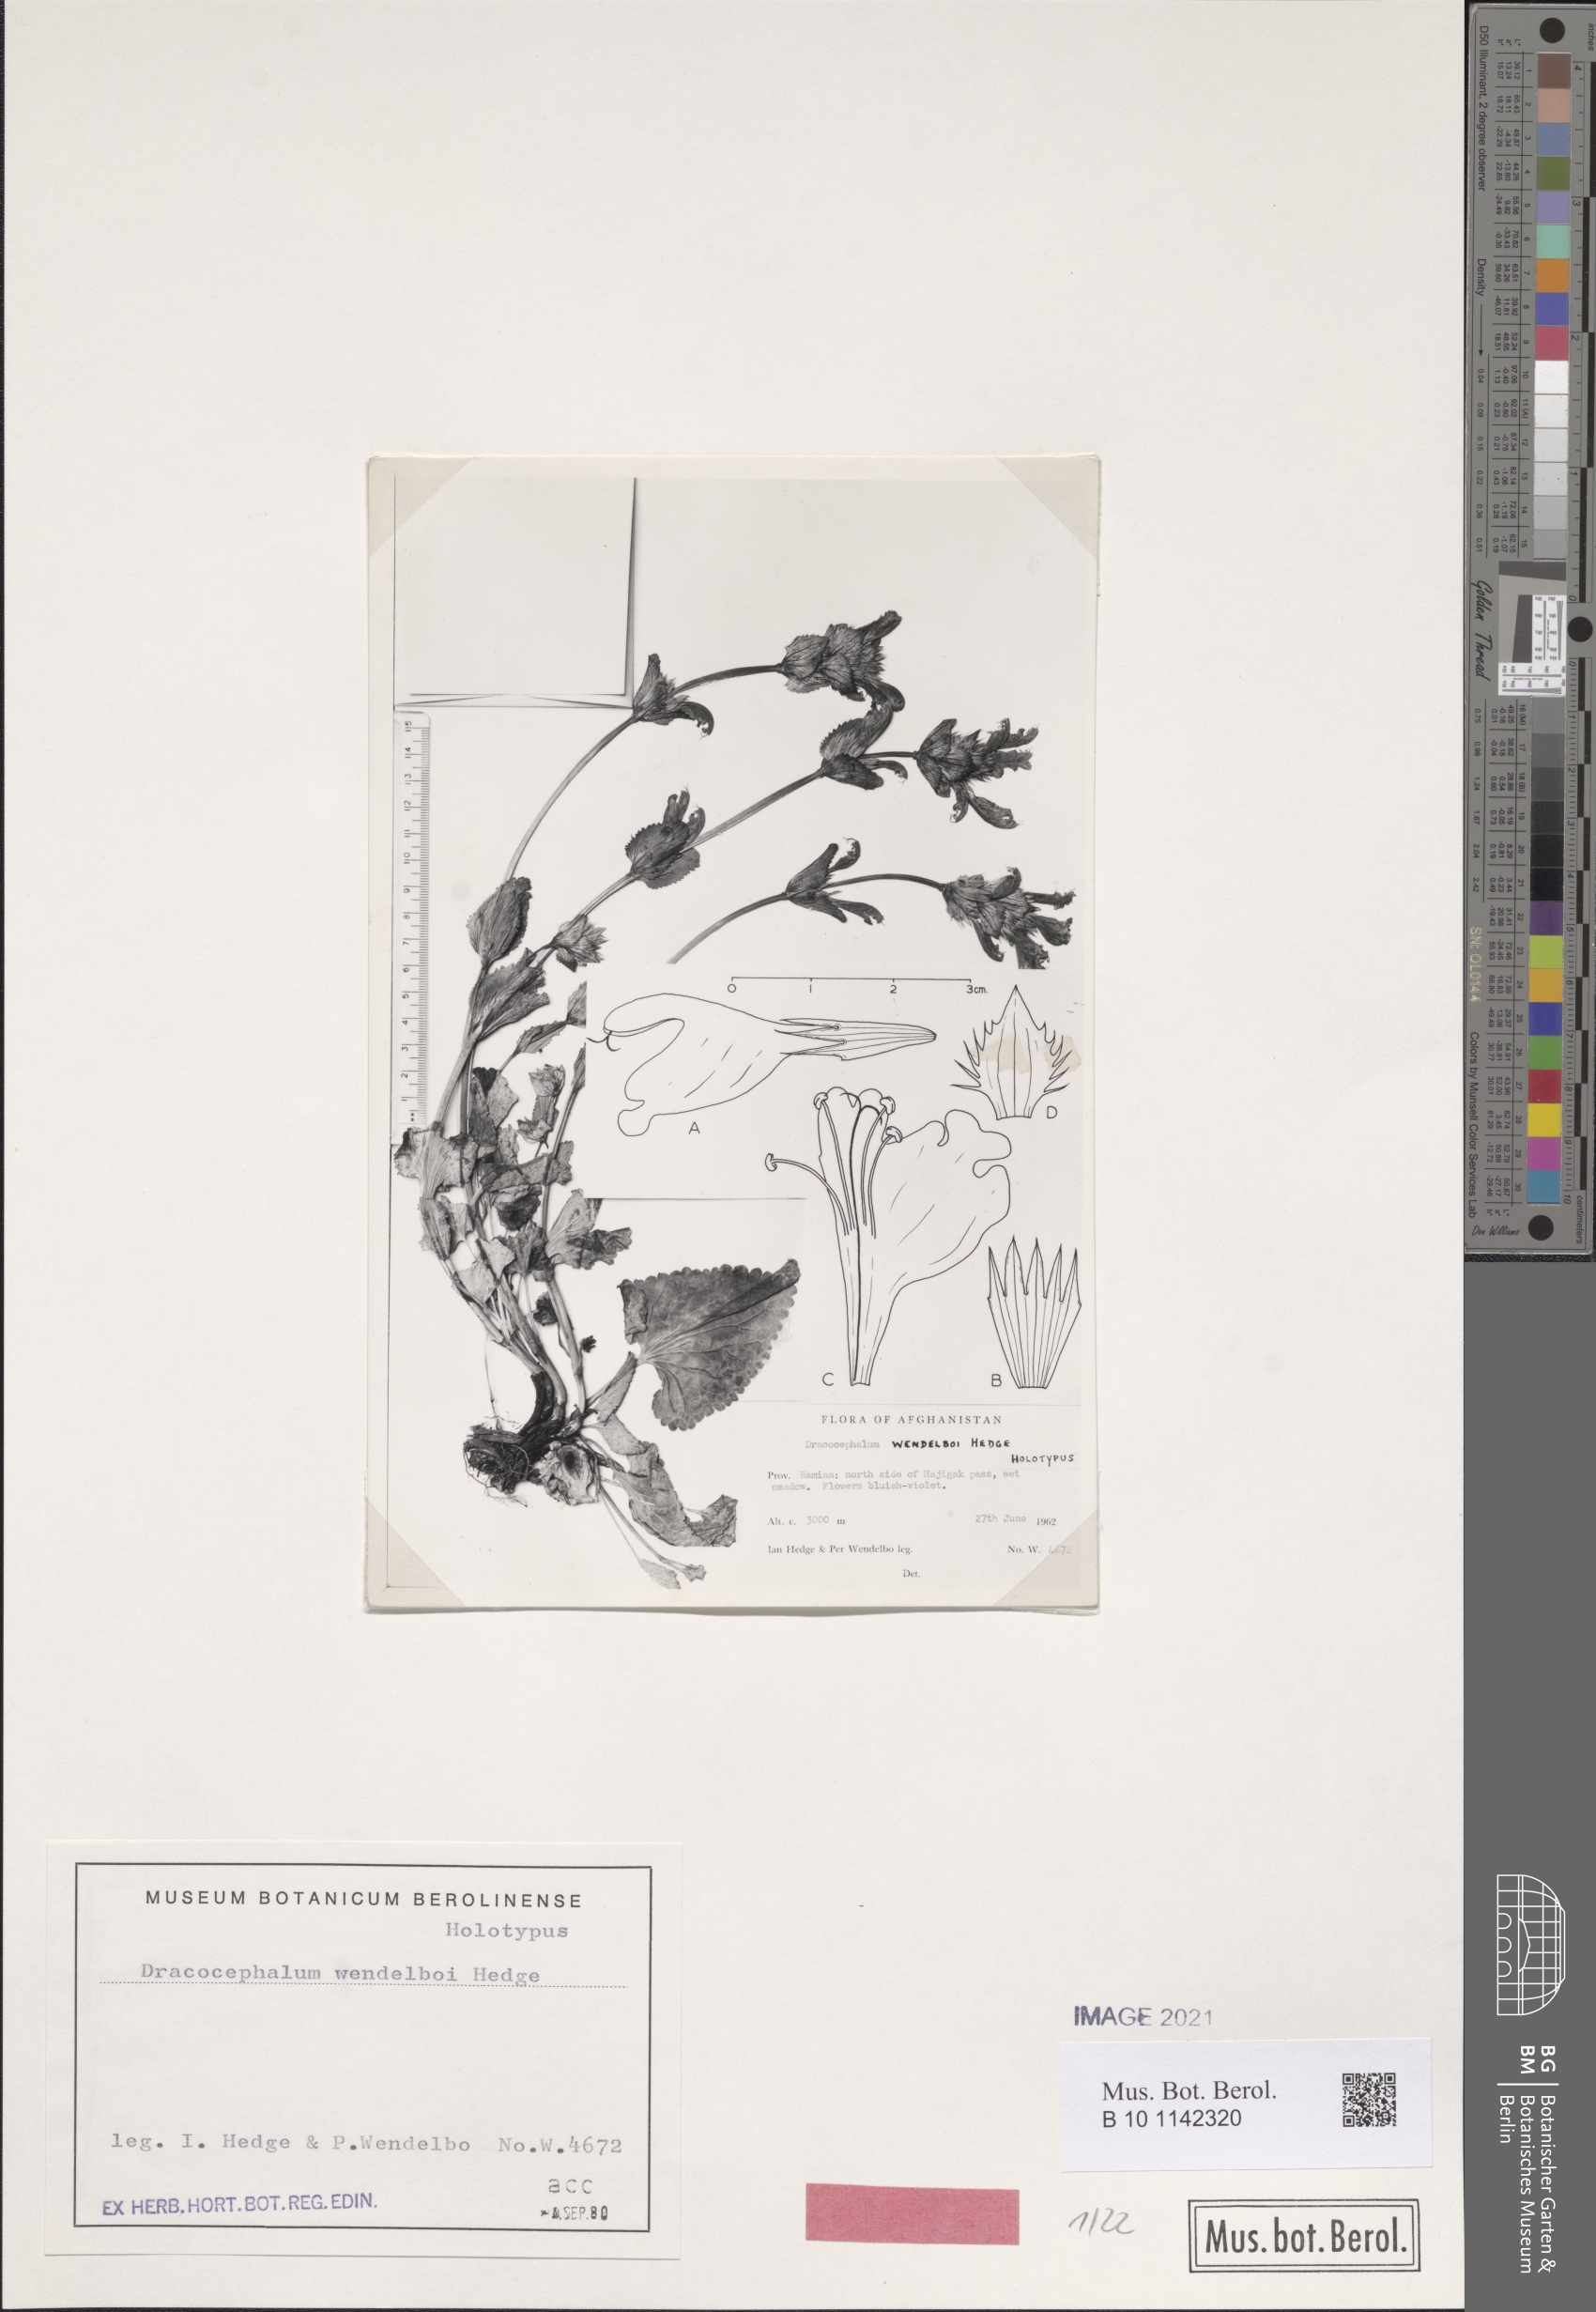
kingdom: Plantae
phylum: Tracheophyta
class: Magnoliopsida
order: Lamiales
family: Lamiaceae
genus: Dracocephalum
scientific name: Dracocephalum wendelboi
